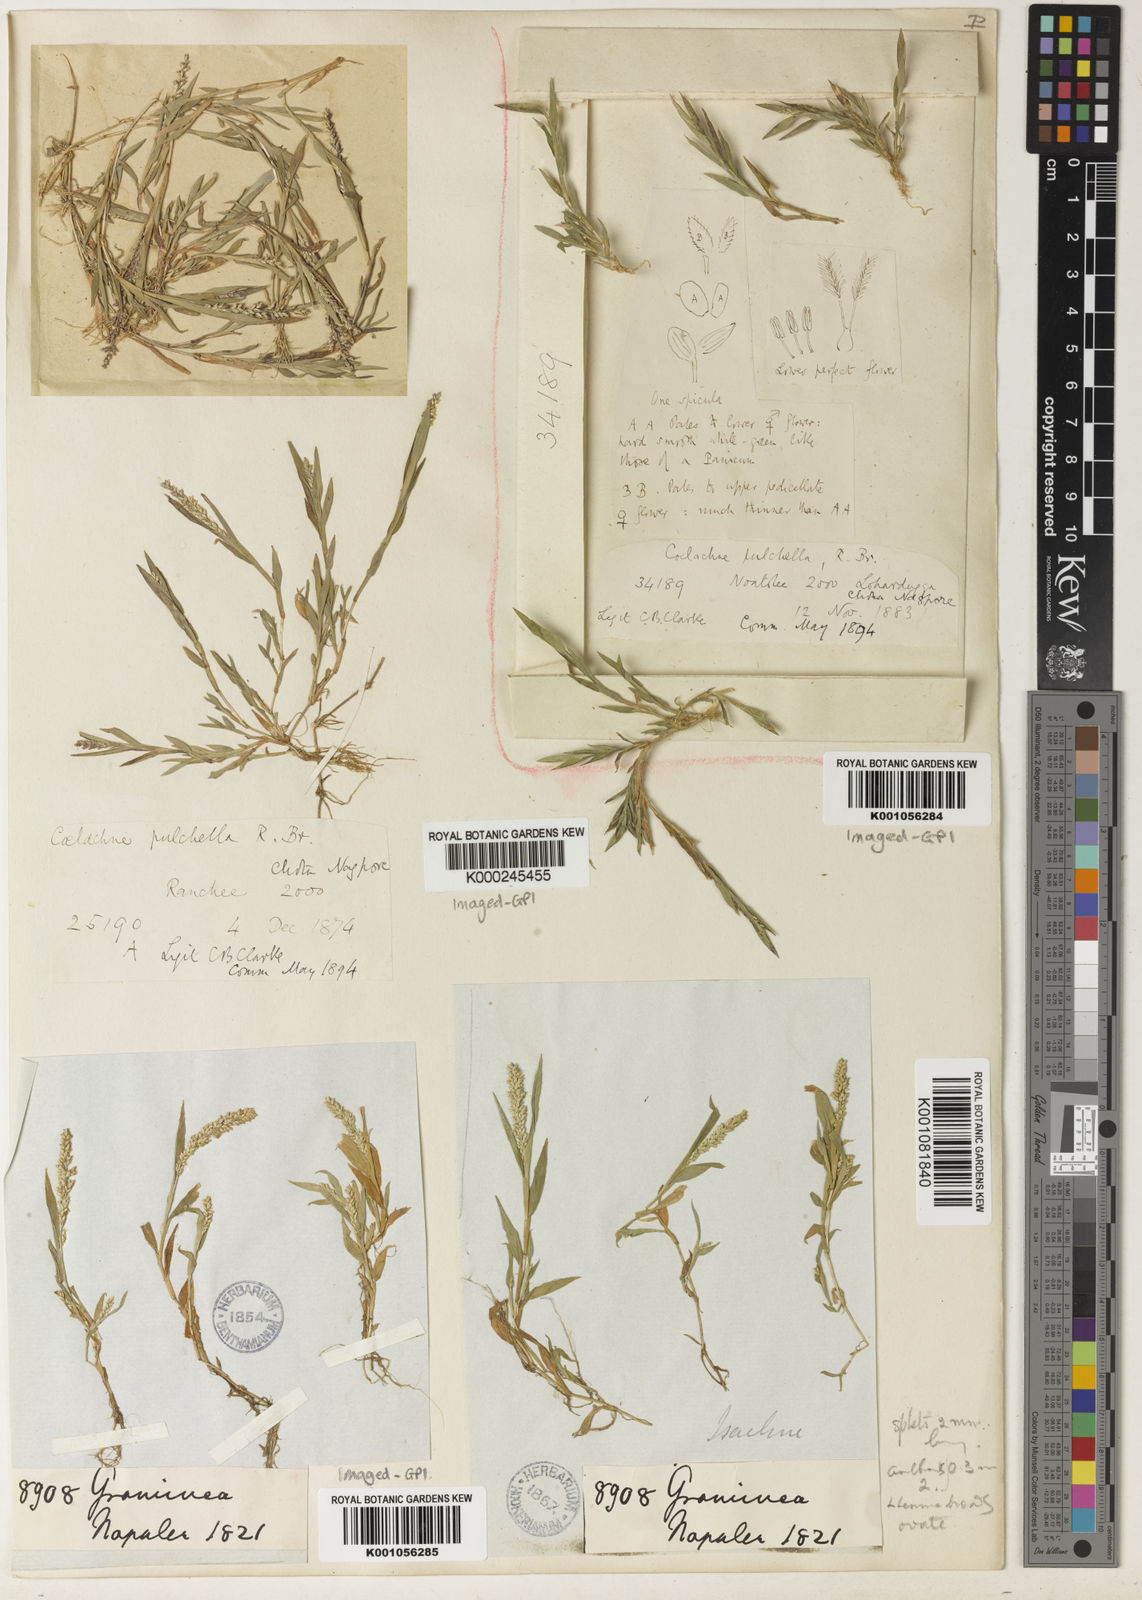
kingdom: Plantae
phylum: Tracheophyta
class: Liliopsida
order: Poales
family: Poaceae
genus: Coelachne
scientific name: Coelachne simpliciuscula
